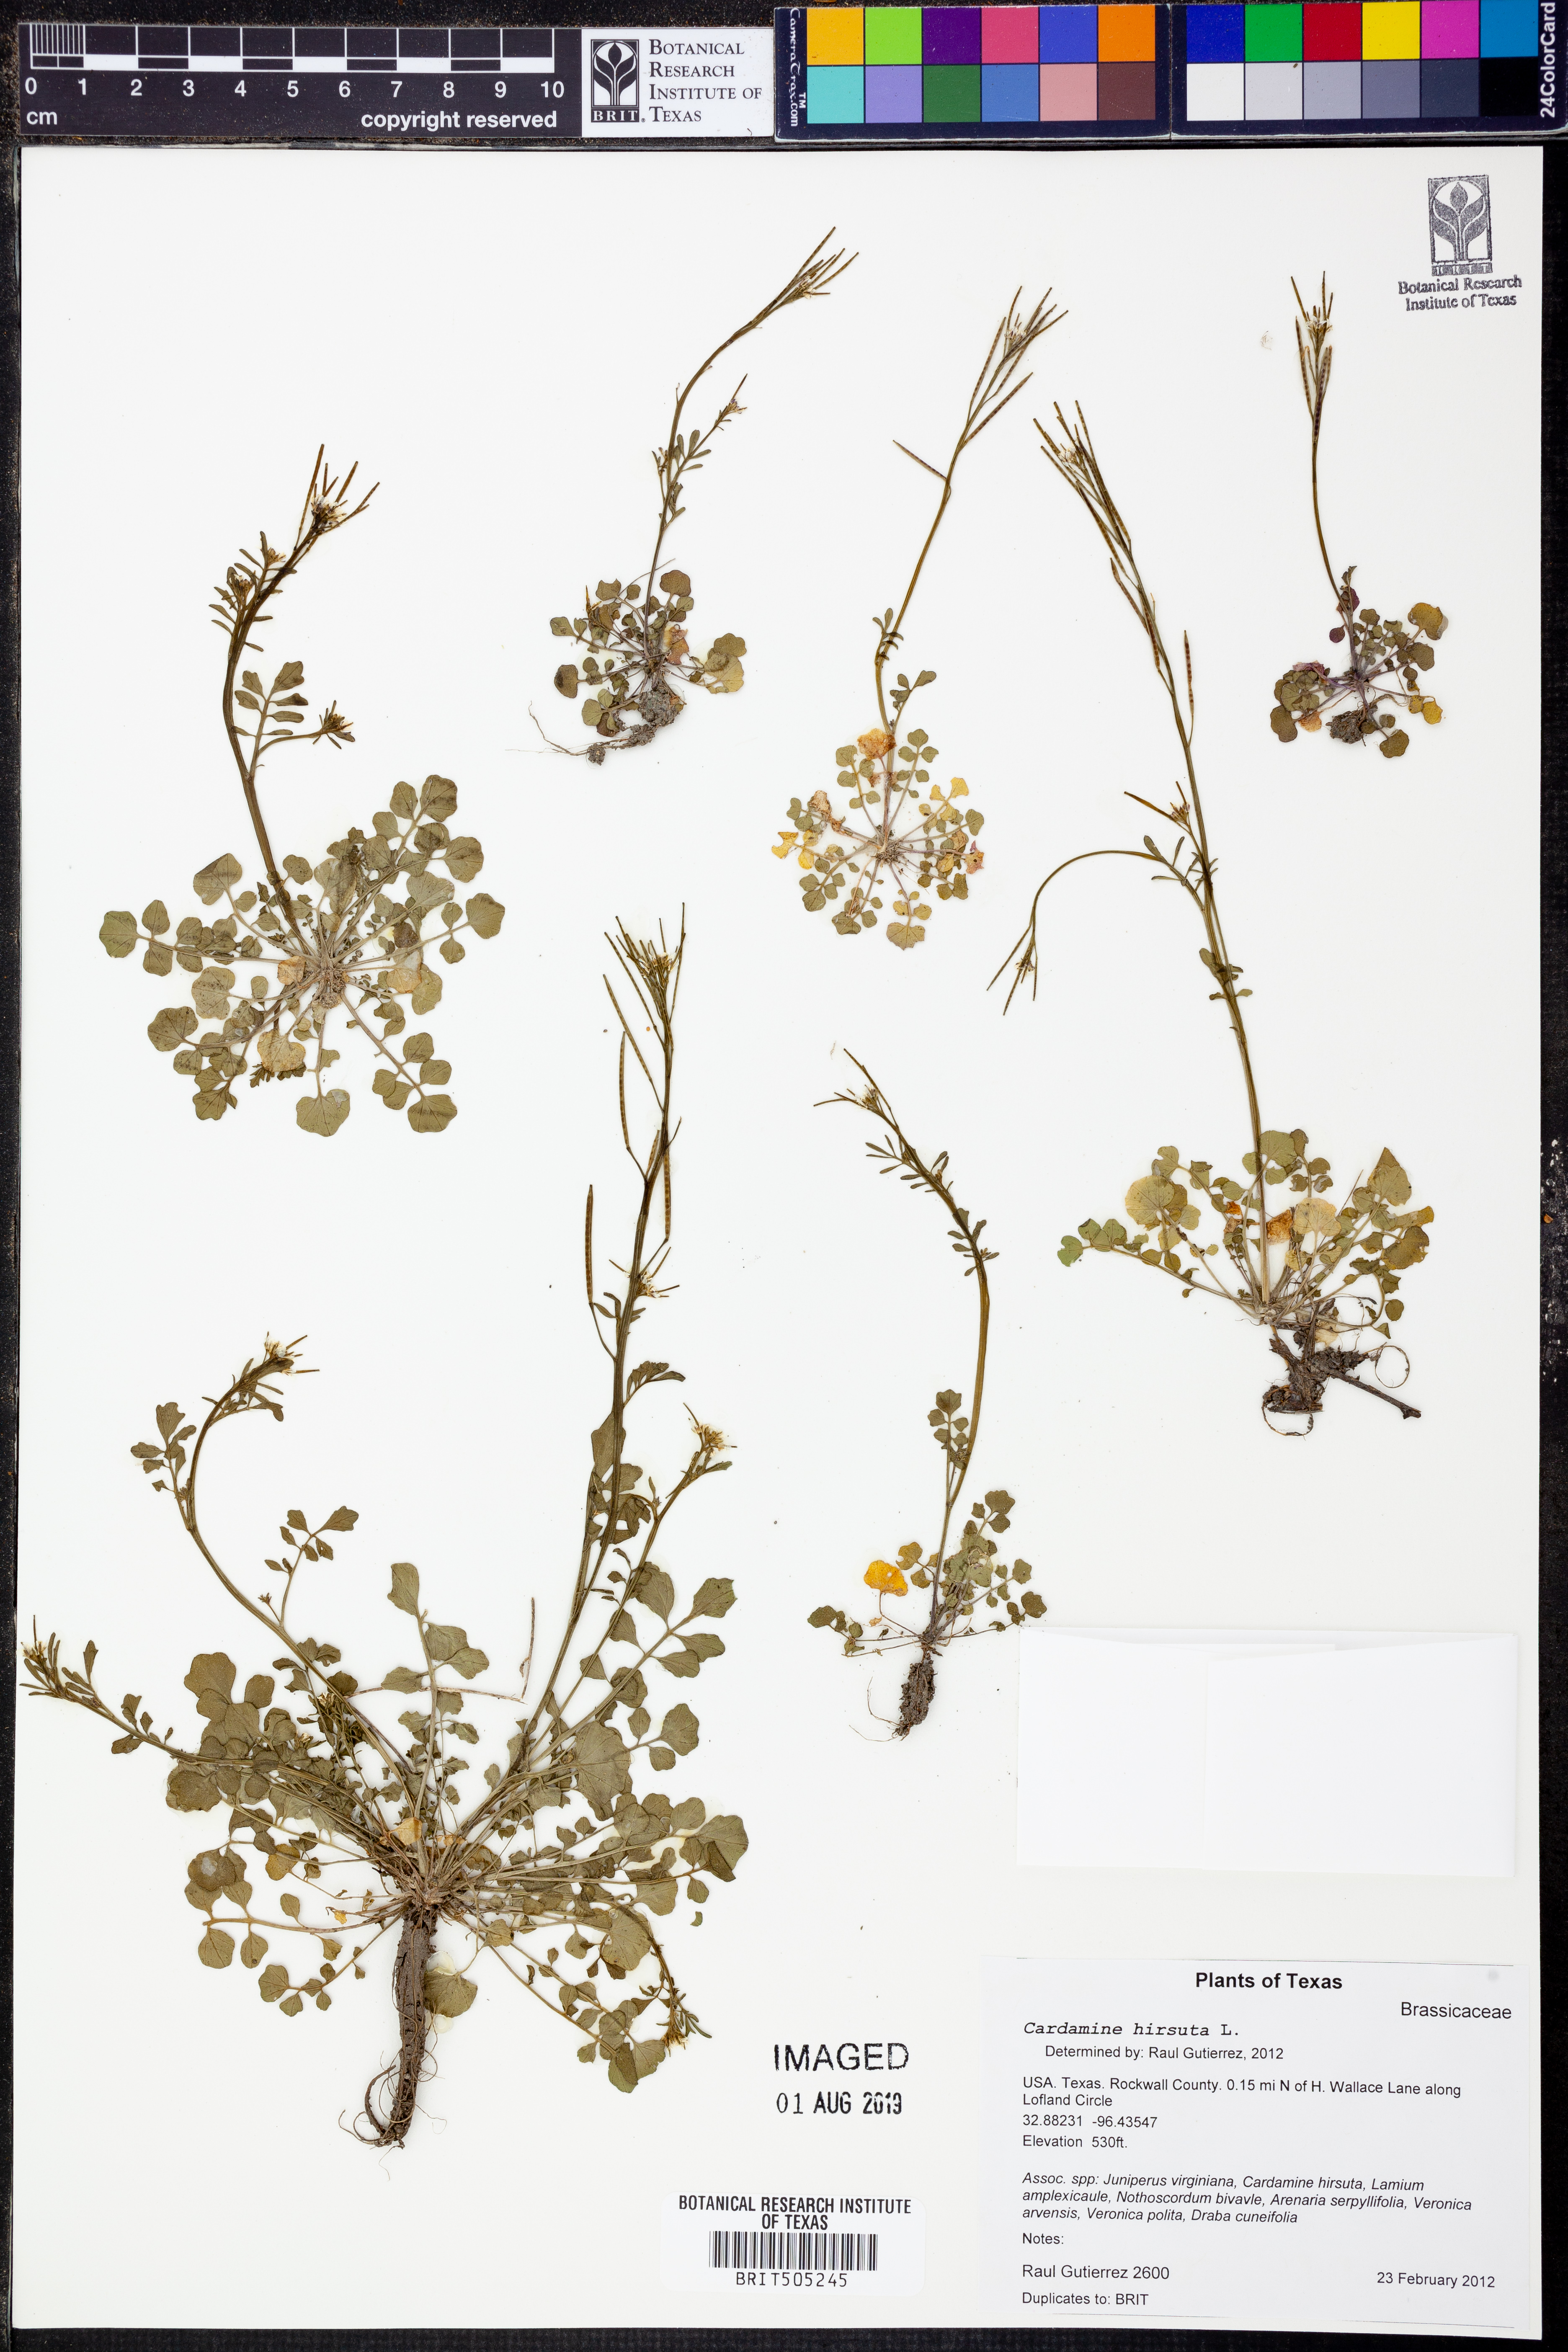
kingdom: Plantae
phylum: Tracheophyta
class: Magnoliopsida
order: Brassicales
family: Brassicaceae
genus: Cardamine
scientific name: Cardamine hirsuta
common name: Hairy bittercress
